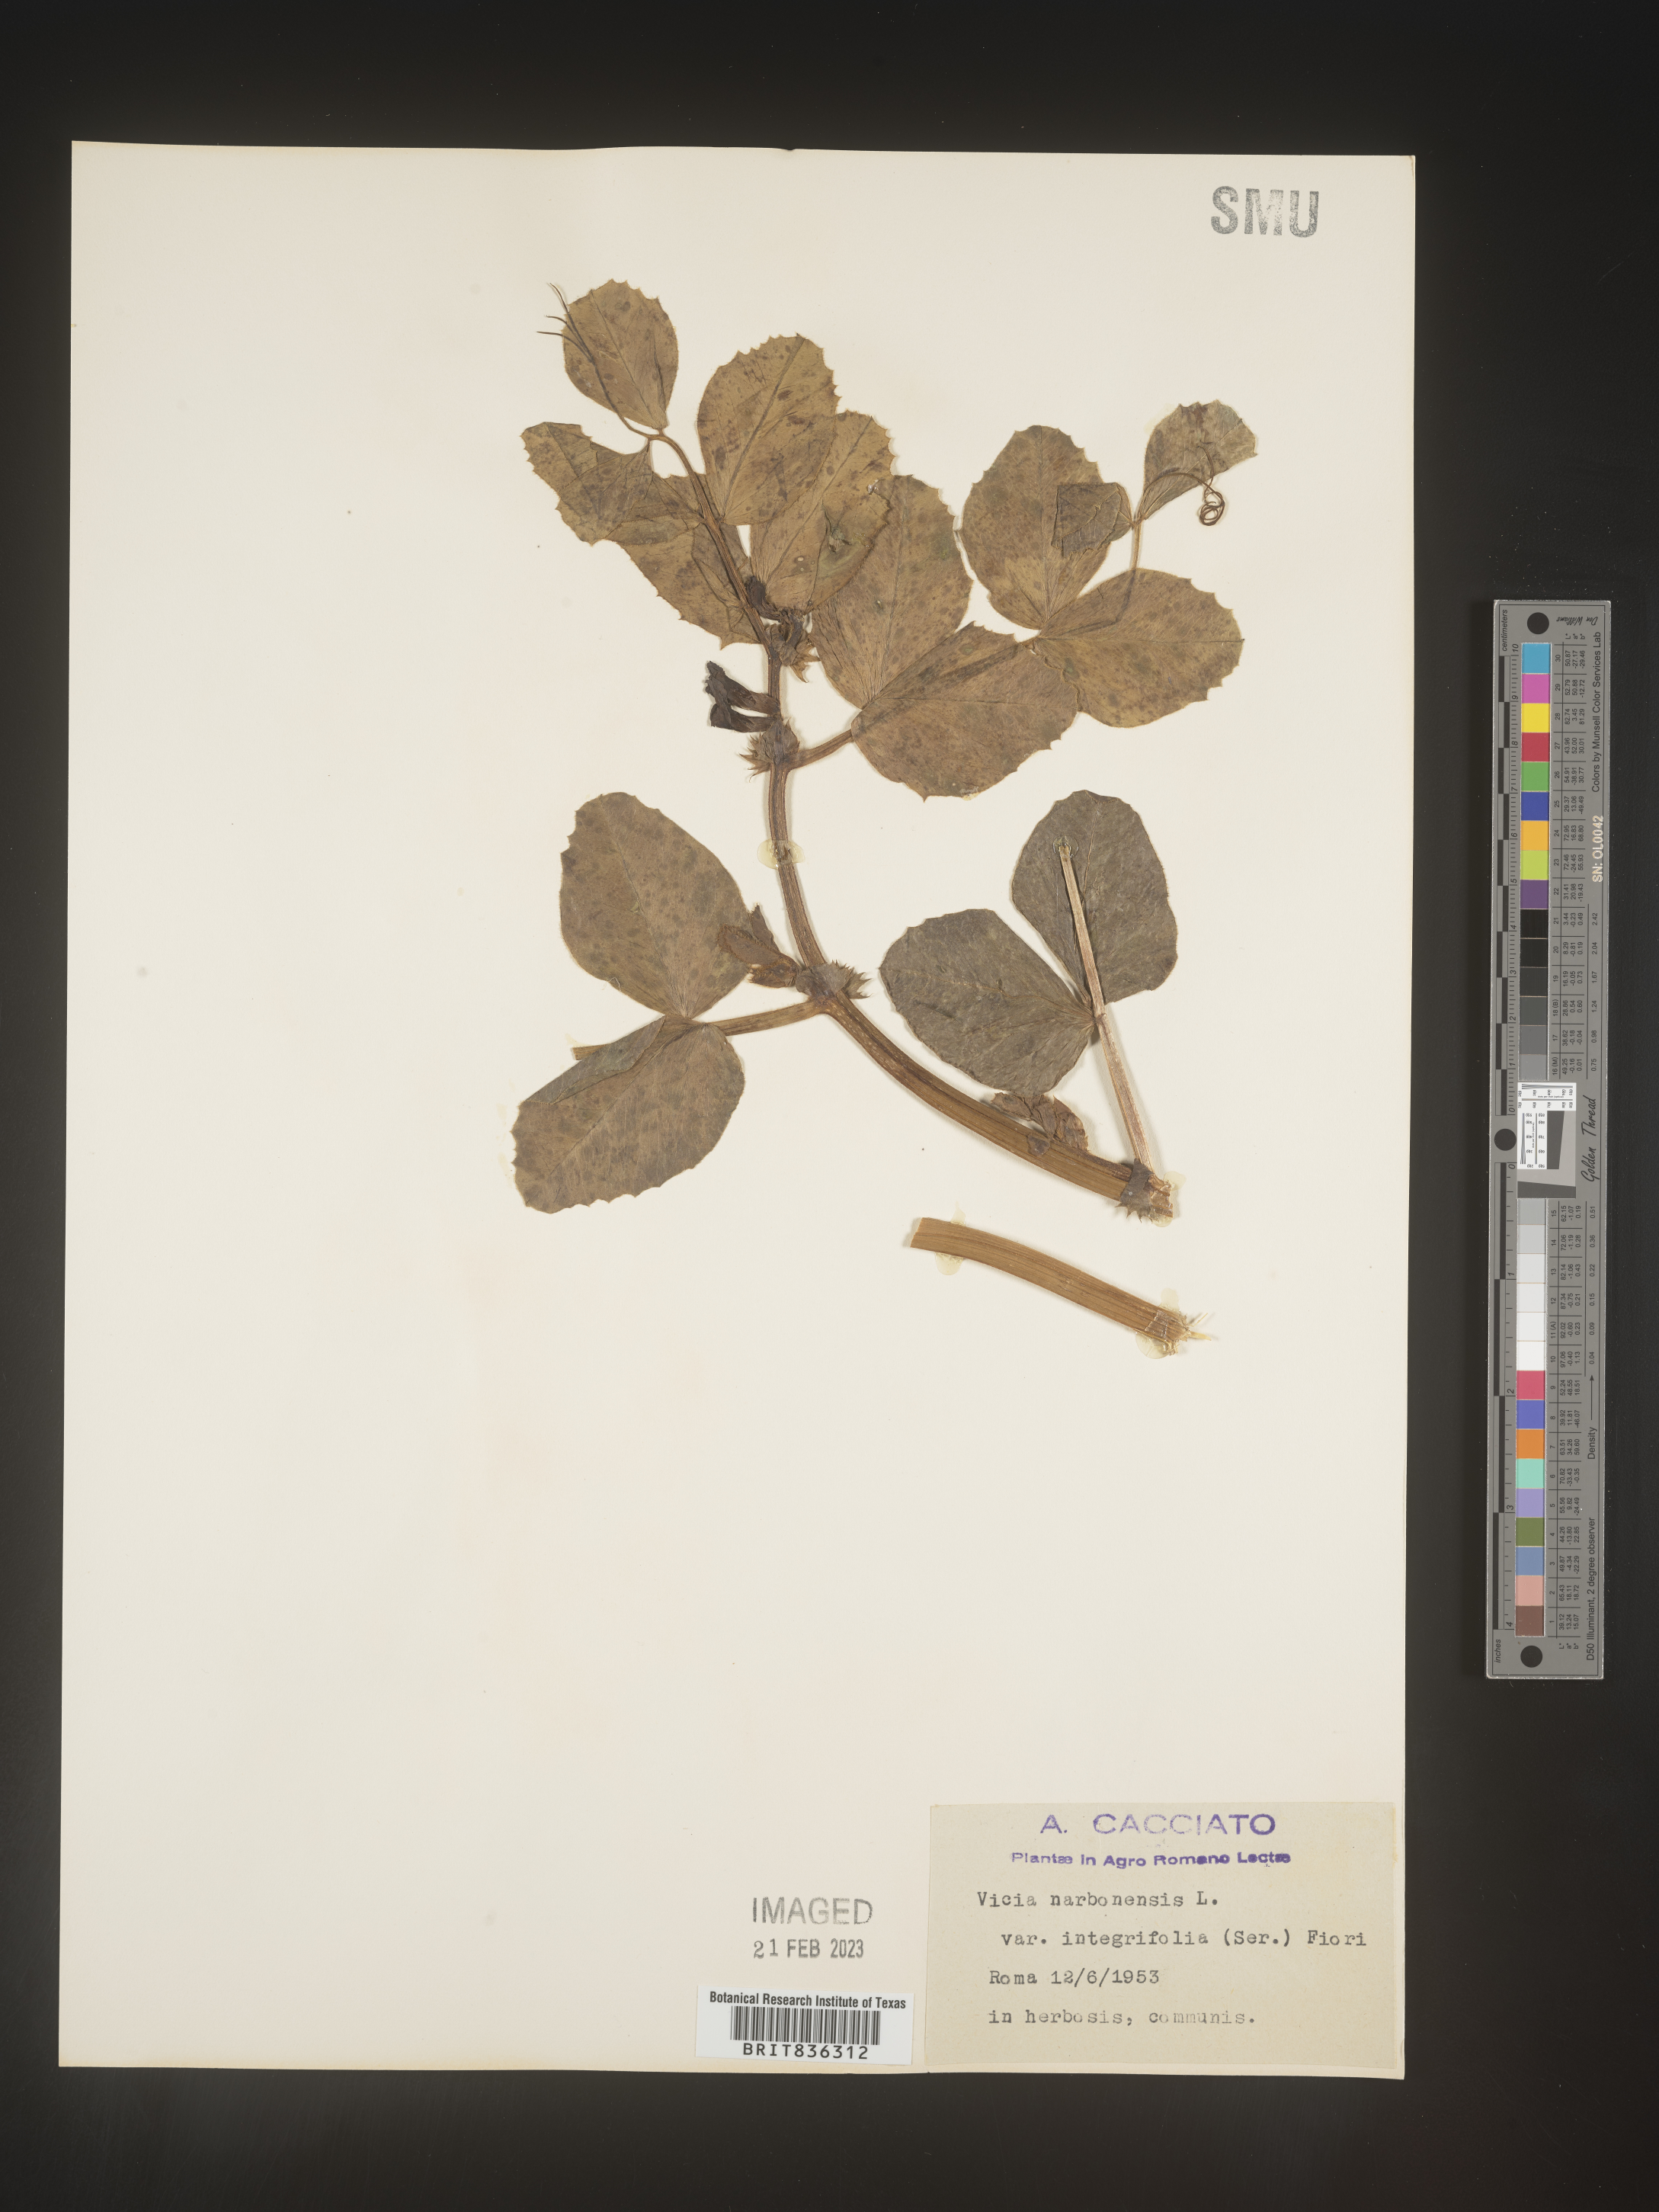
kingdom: Plantae
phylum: Tracheophyta
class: Magnoliopsida
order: Fabales
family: Fabaceae
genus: Vicia
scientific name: Vicia
